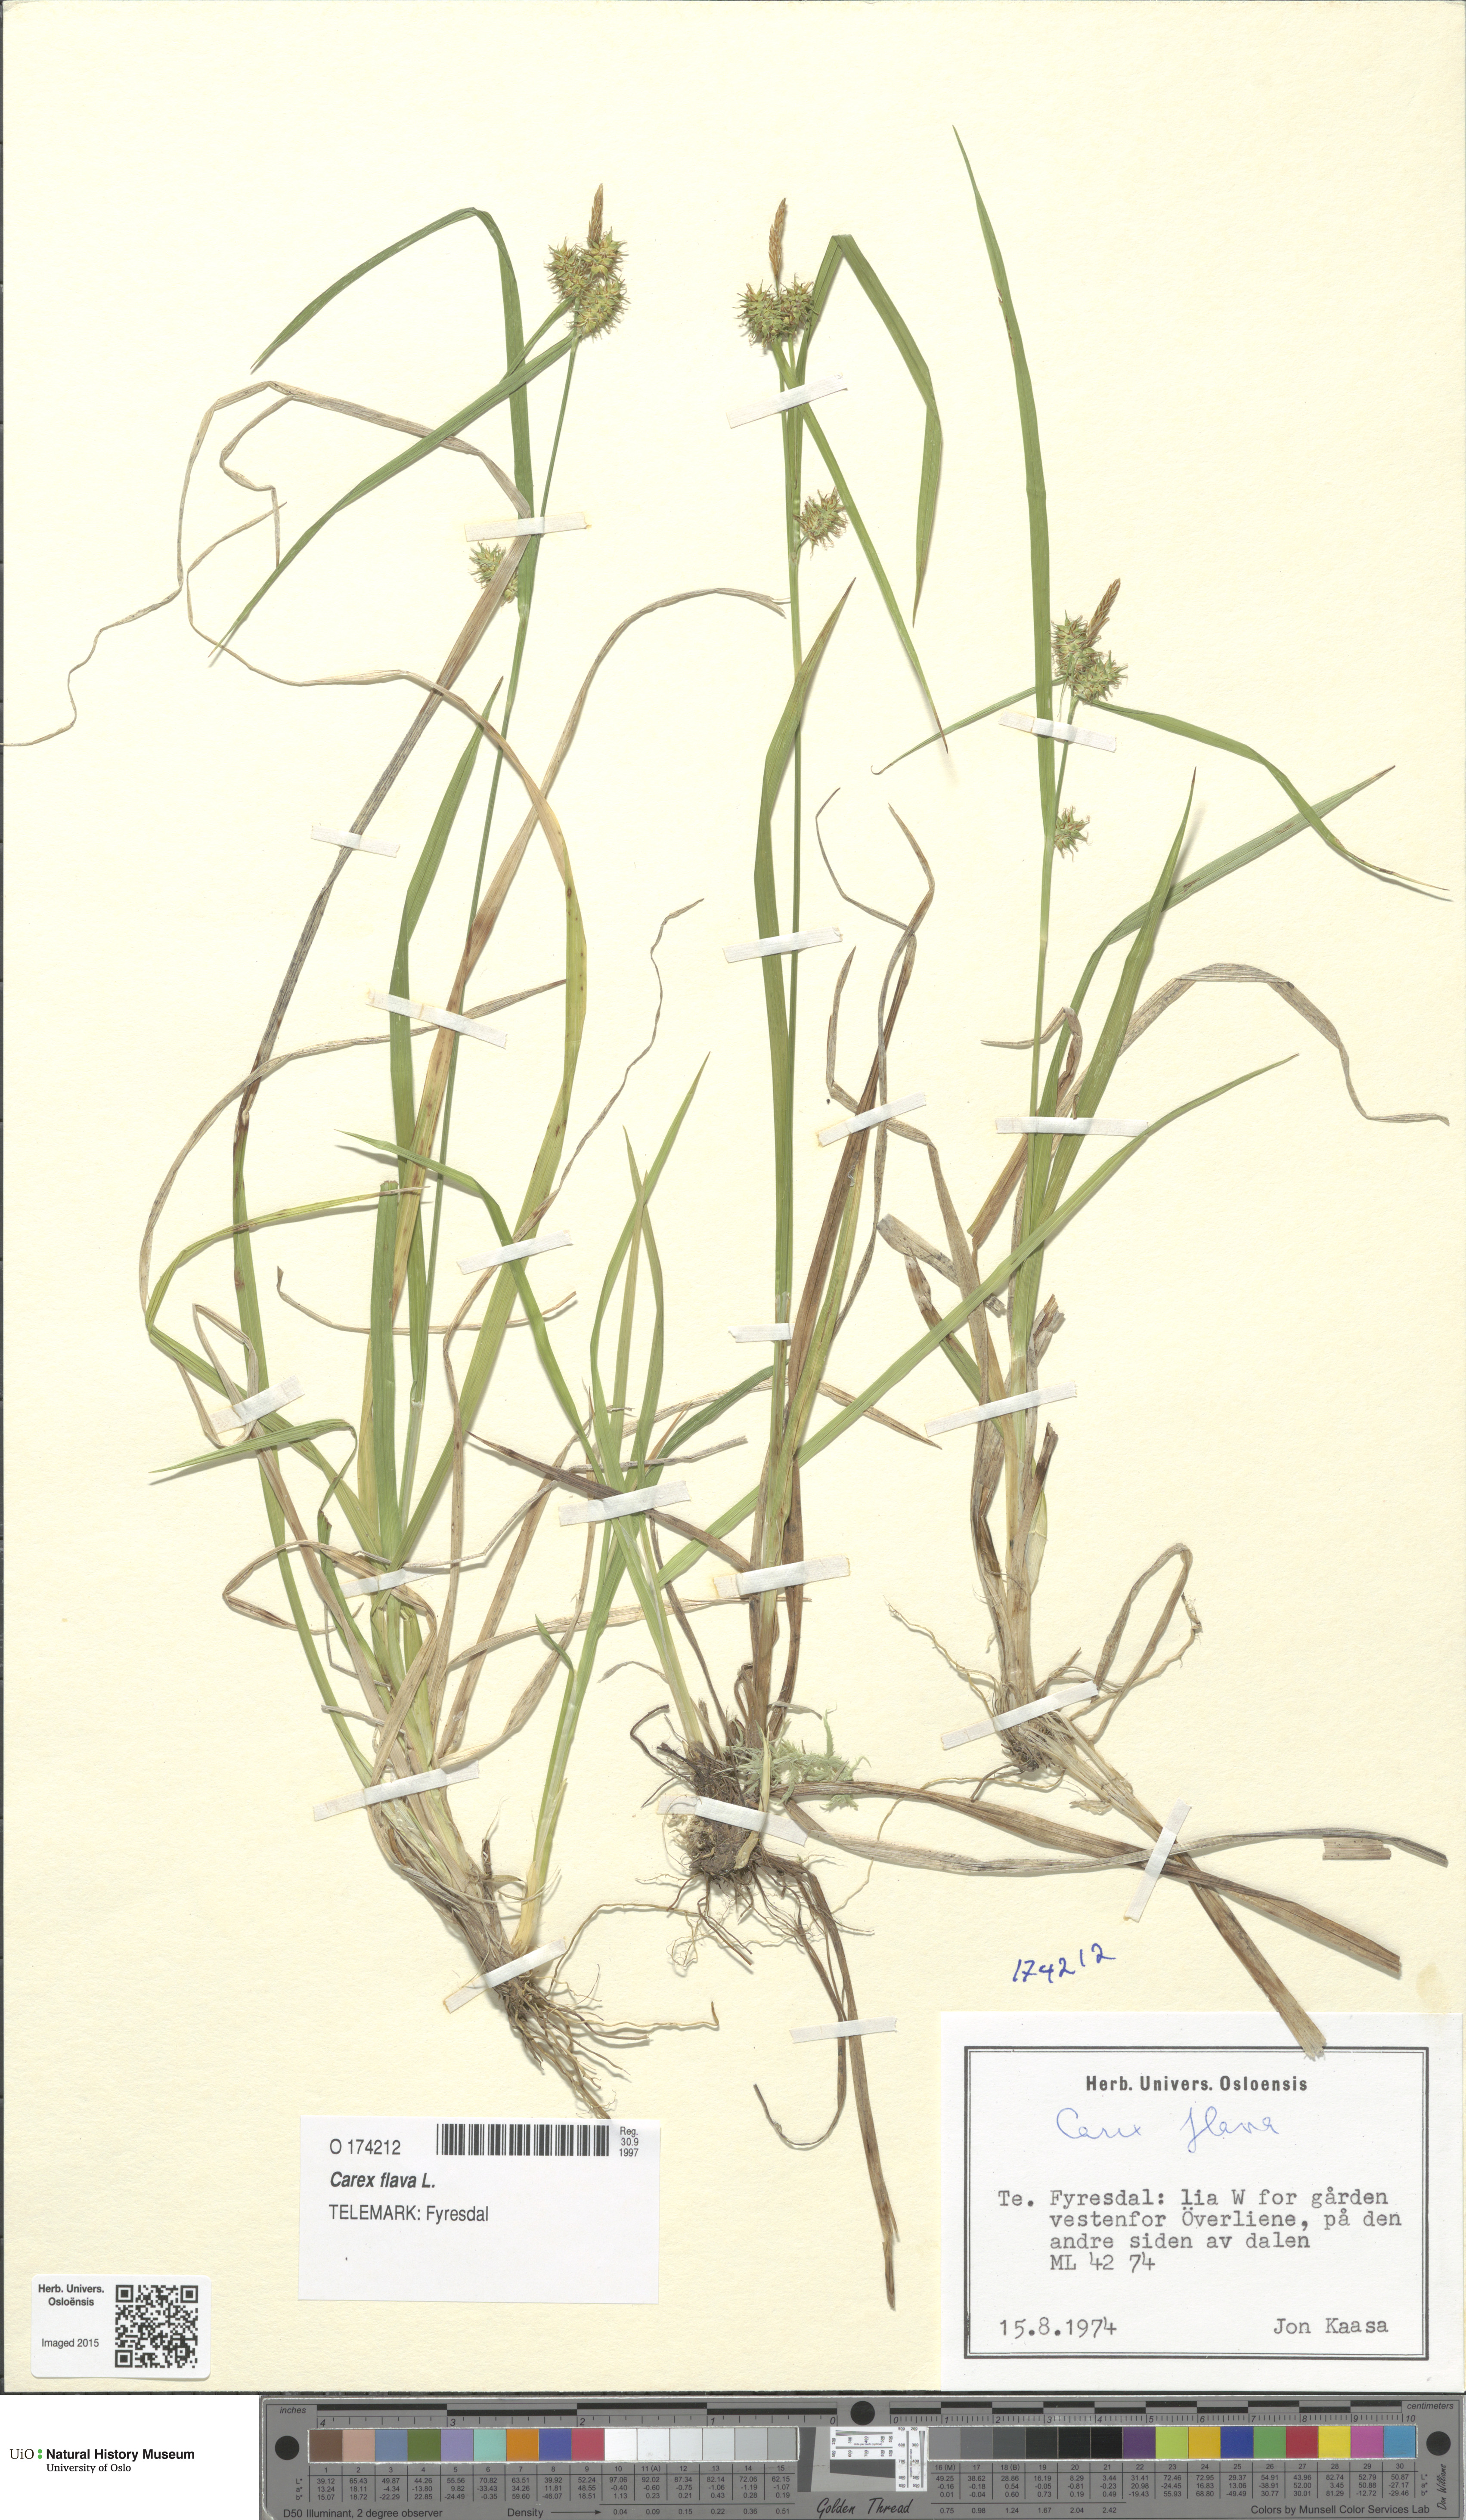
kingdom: Plantae
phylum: Tracheophyta
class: Liliopsida
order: Poales
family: Cyperaceae
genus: Carex
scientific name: Carex flava
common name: Large yellow-sedge
